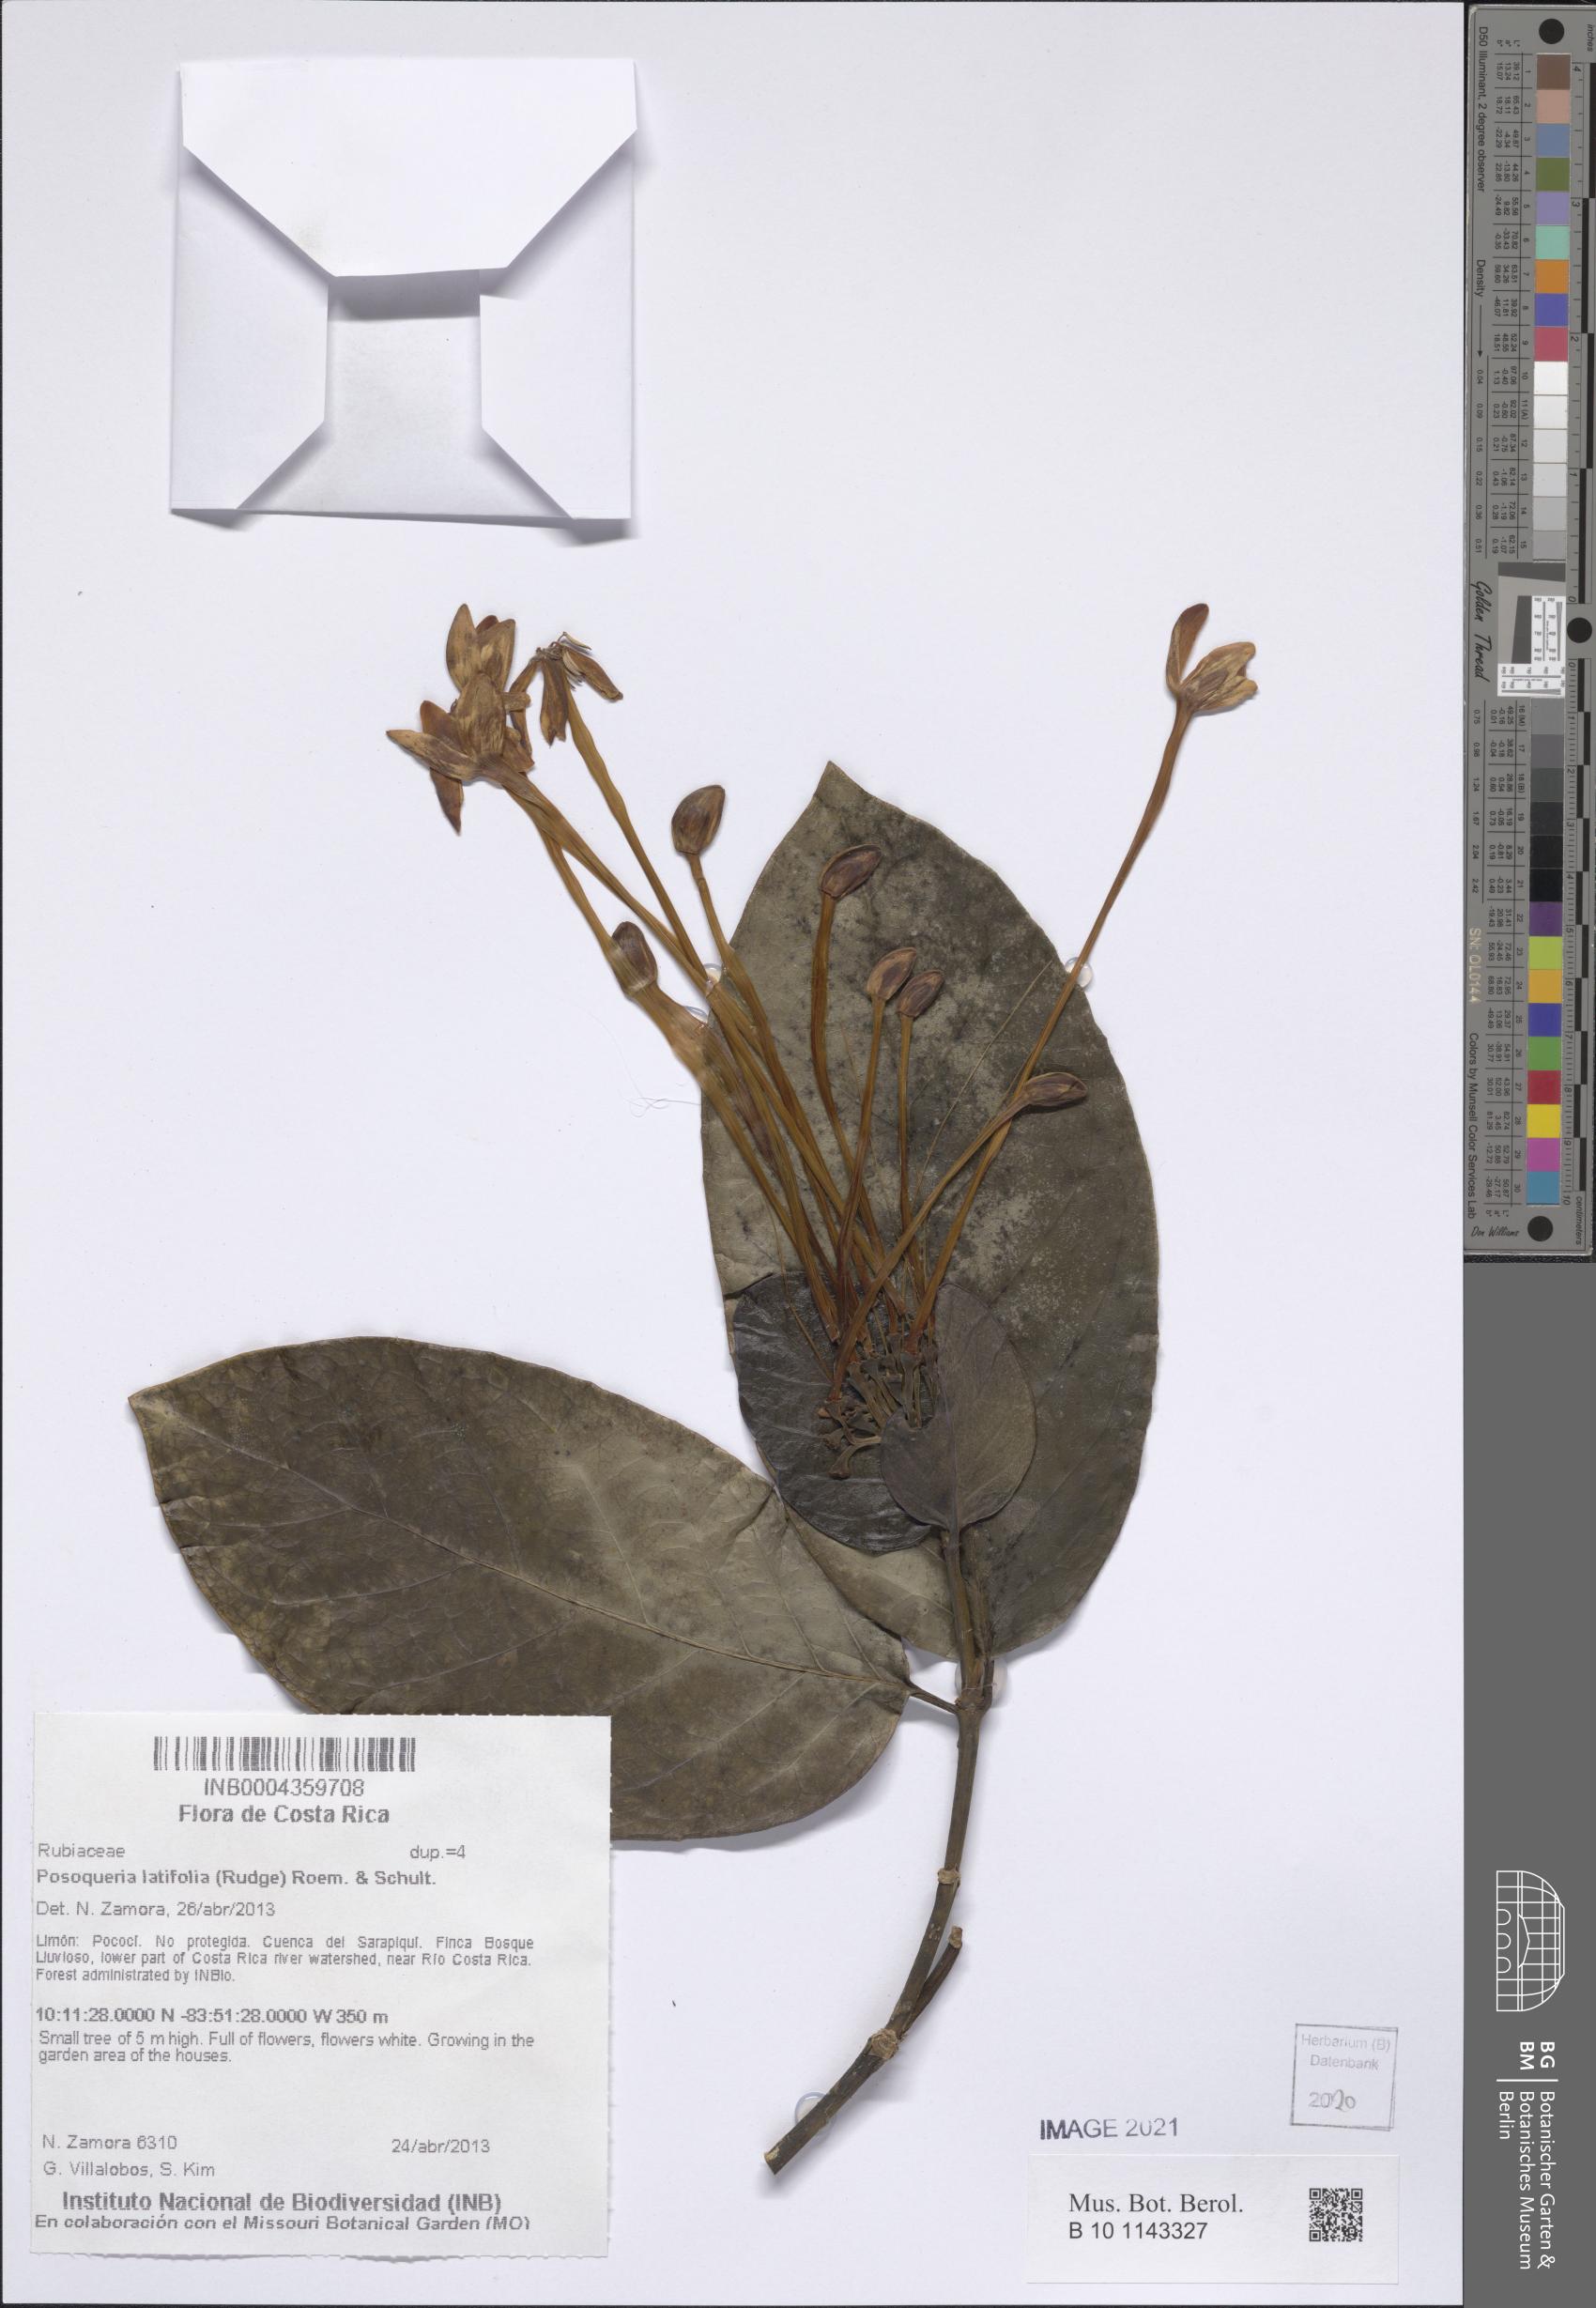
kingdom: Plantae
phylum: Tracheophyta
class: Magnoliopsida
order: Gentianales
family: Rubiaceae
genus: Posoqueria
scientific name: Posoqueria latifolia
